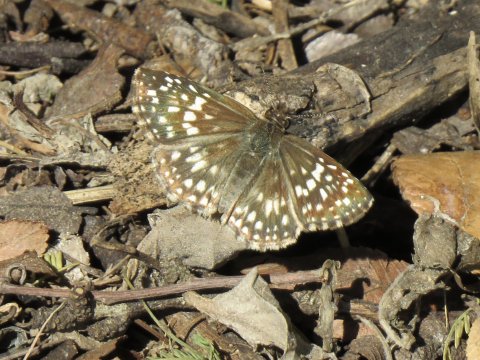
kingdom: Animalia
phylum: Arthropoda
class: Insecta
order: Lepidoptera
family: Hesperiidae
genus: Pyrgus
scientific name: Pyrgus oileus
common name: Tropical Checkered-Skipper
